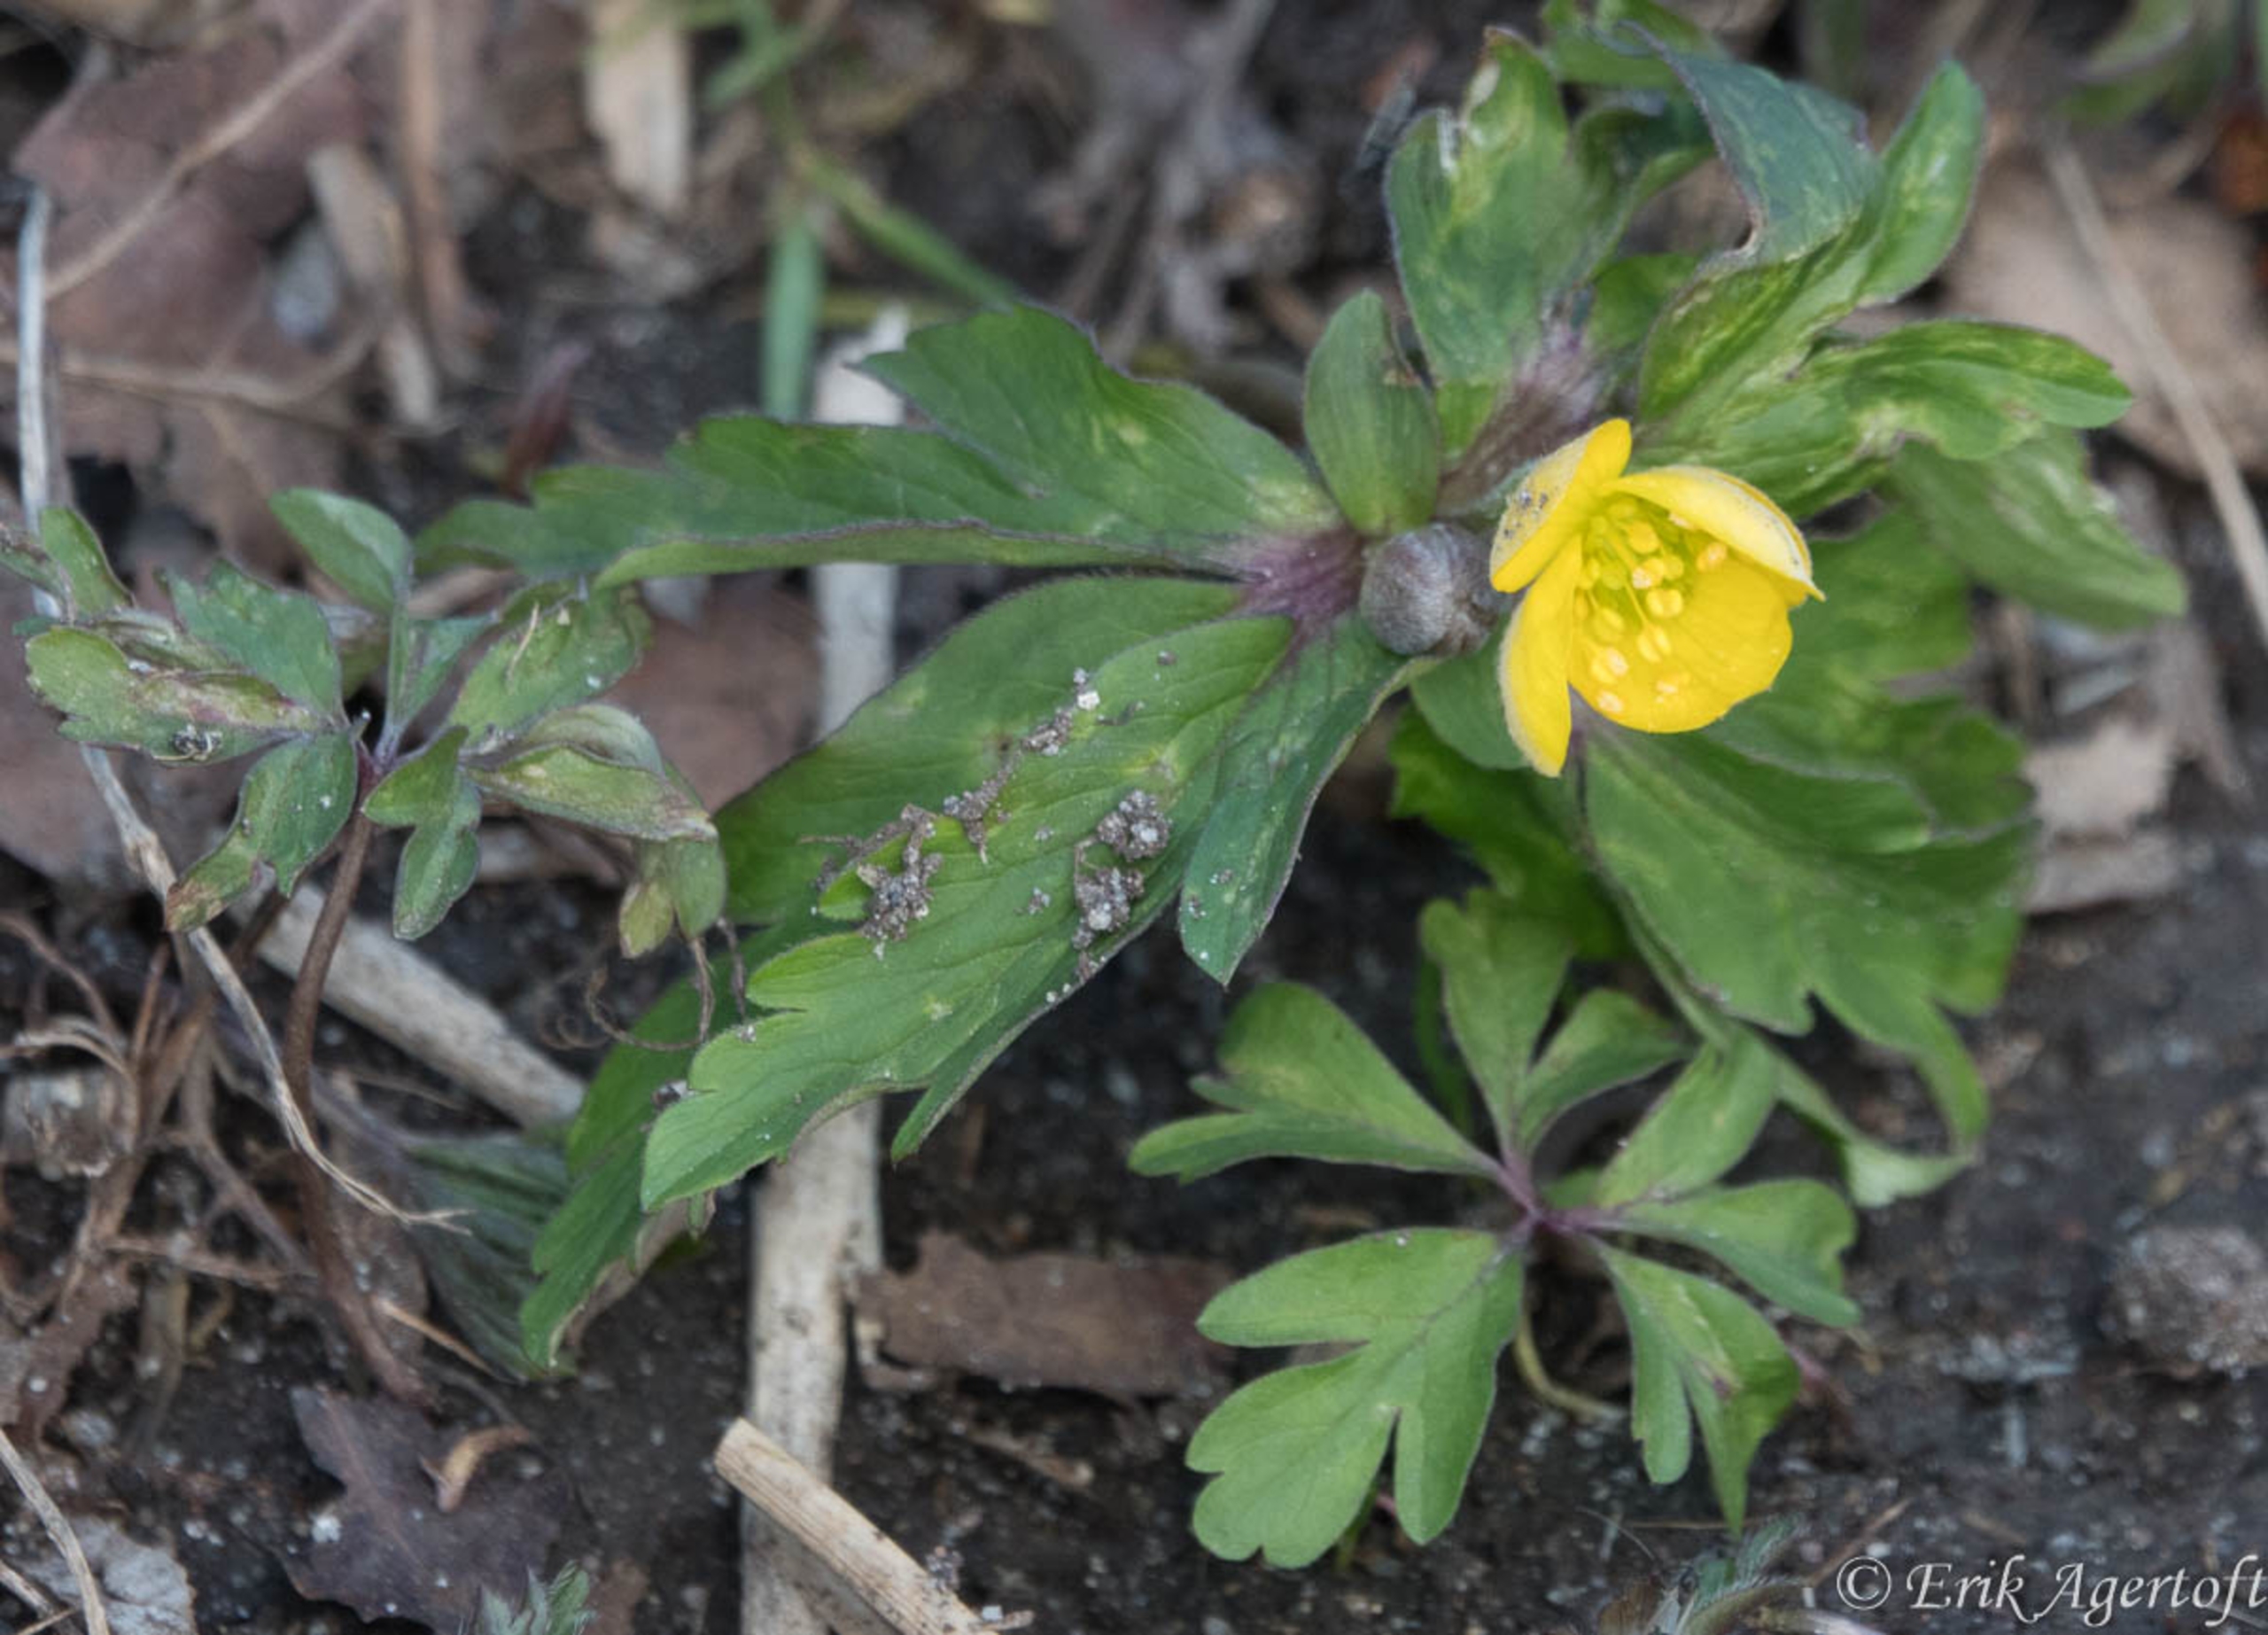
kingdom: Plantae
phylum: Tracheophyta
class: Magnoliopsida
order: Ranunculales
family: Ranunculaceae
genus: Anemone
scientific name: Anemone ranunculoides
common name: Gul anemone
